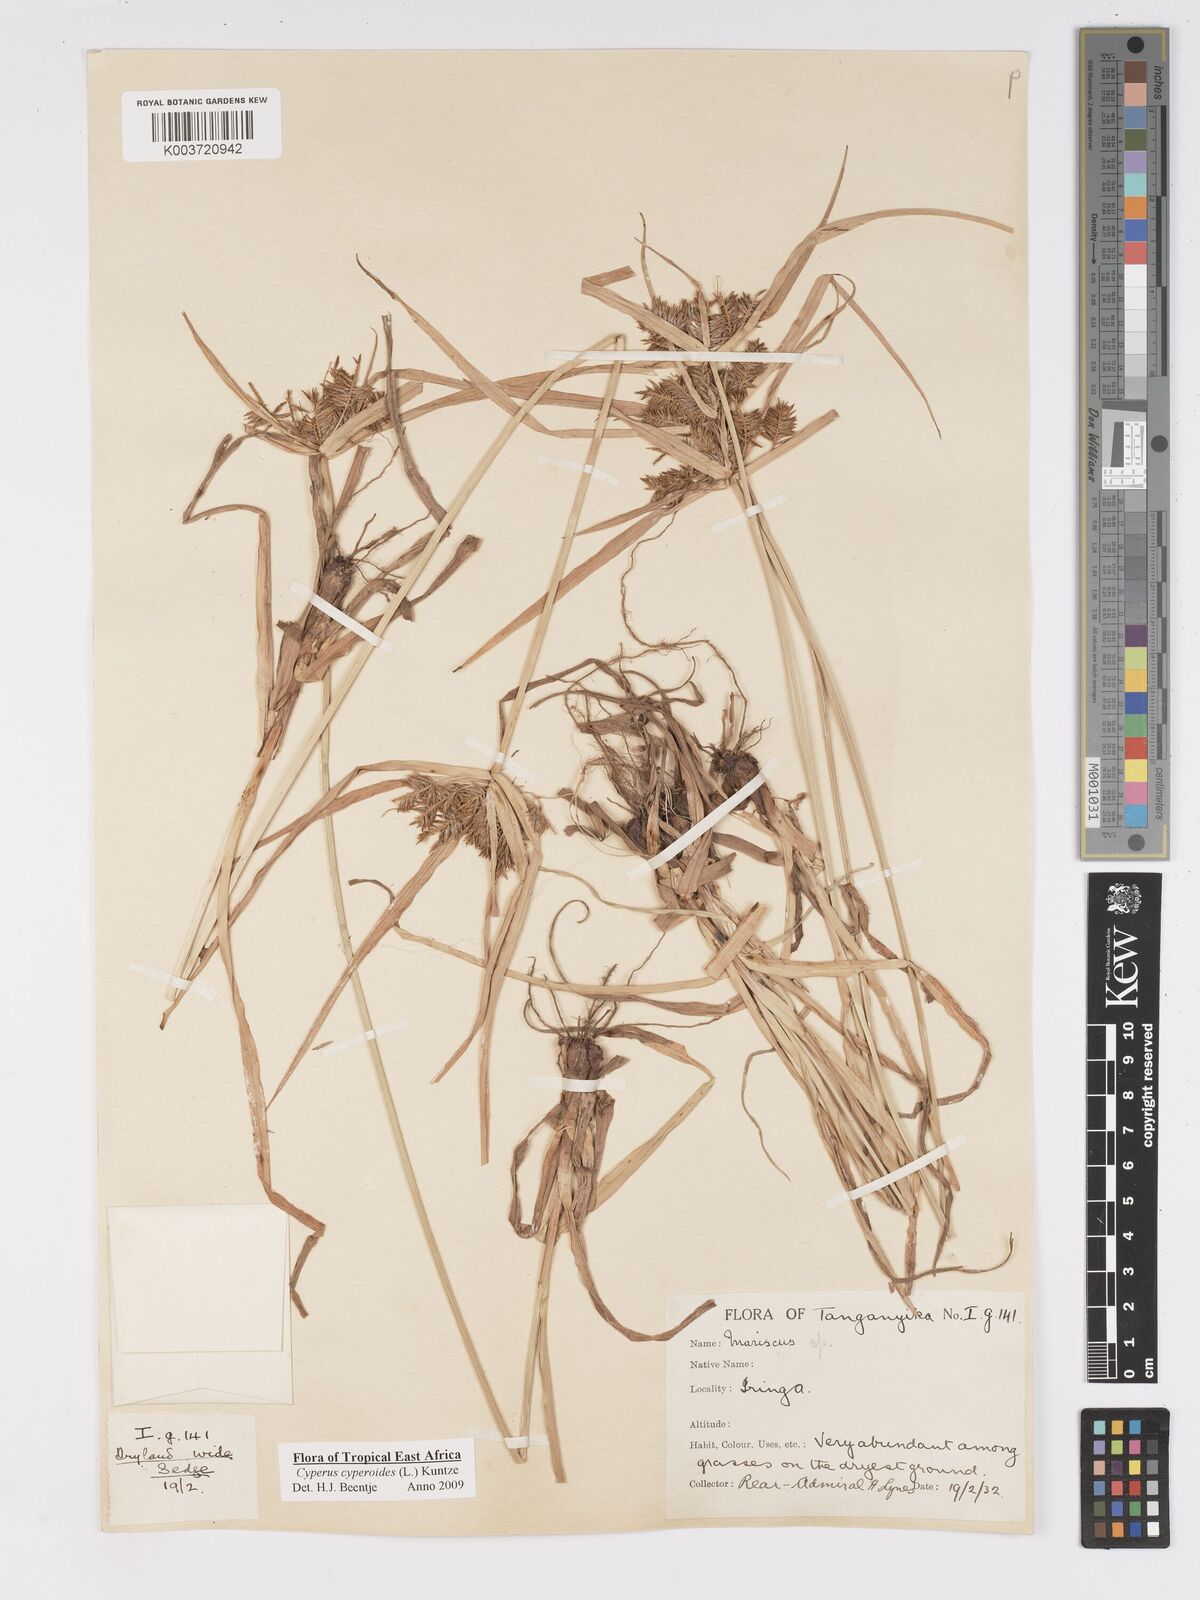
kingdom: Plantae
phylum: Tracheophyta
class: Liliopsida
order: Poales
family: Cyperaceae
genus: Cyperus
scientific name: Cyperus macrocarpus
